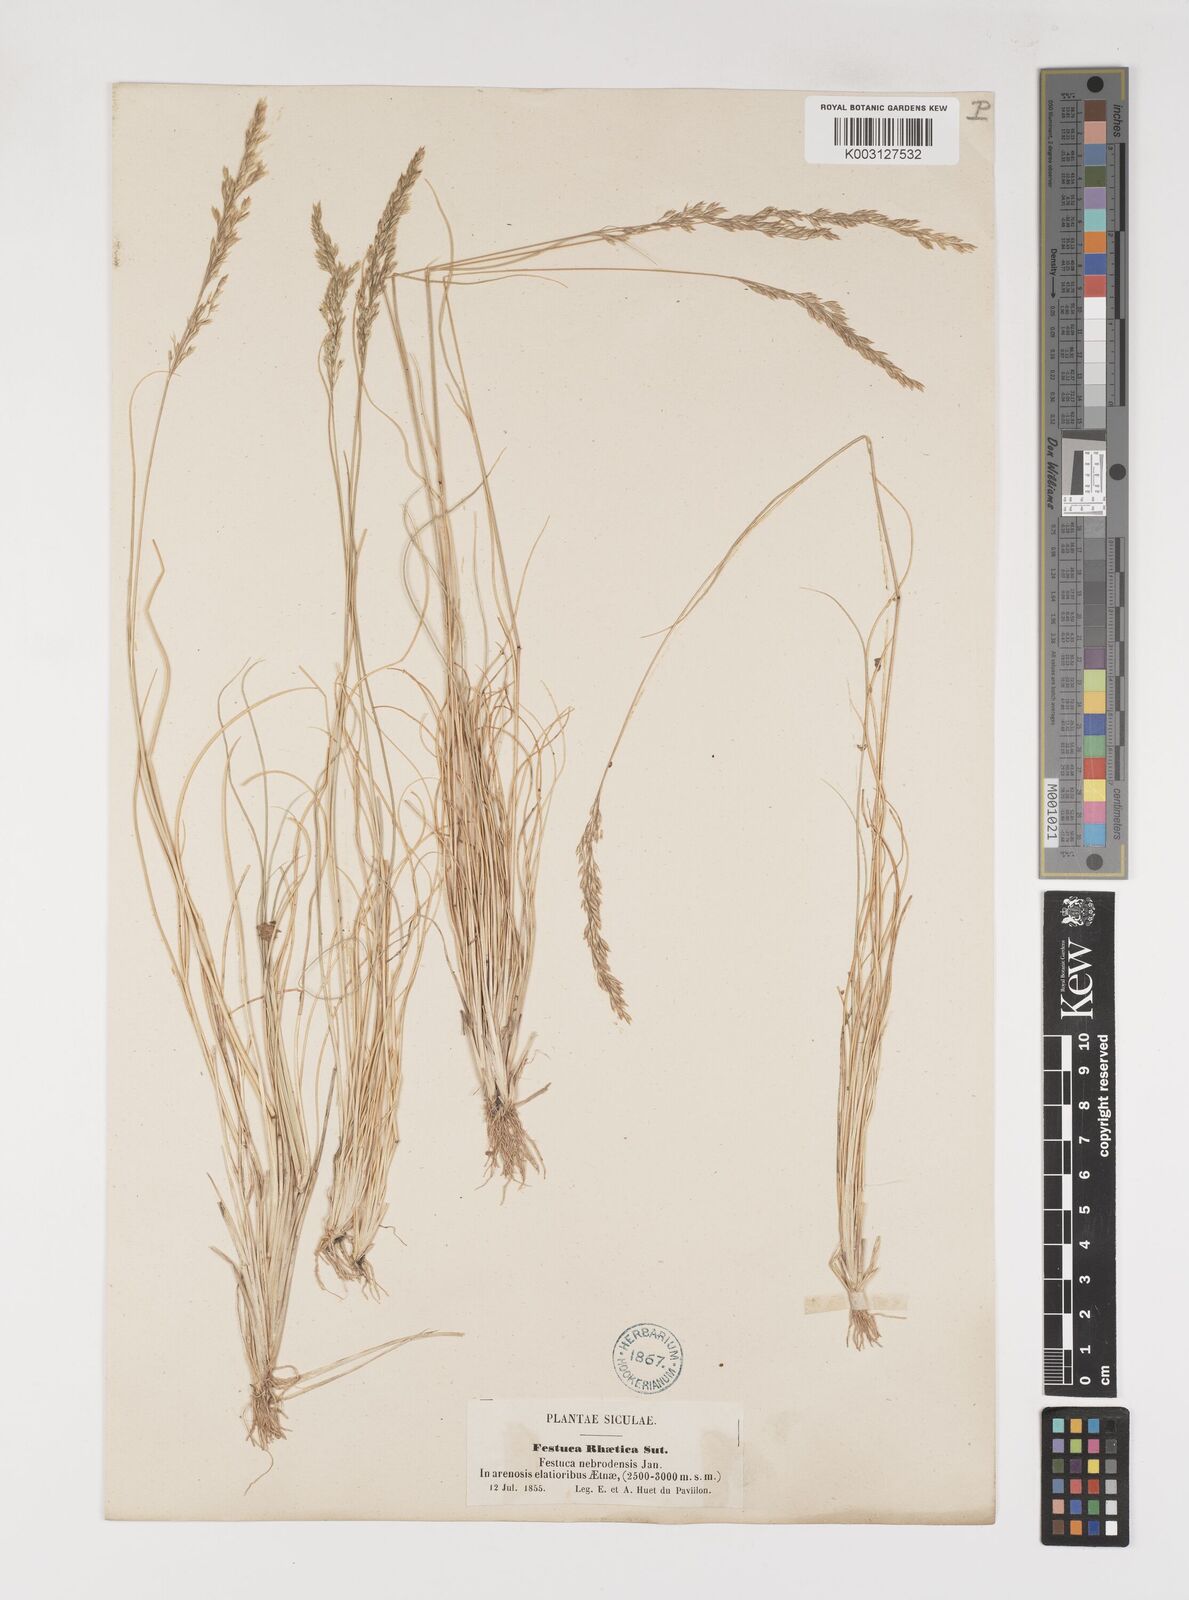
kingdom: Plantae
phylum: Tracheophyta
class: Liliopsida
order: Poales
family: Poaceae
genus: Bellardiochloa
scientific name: Bellardiochloa variegata
